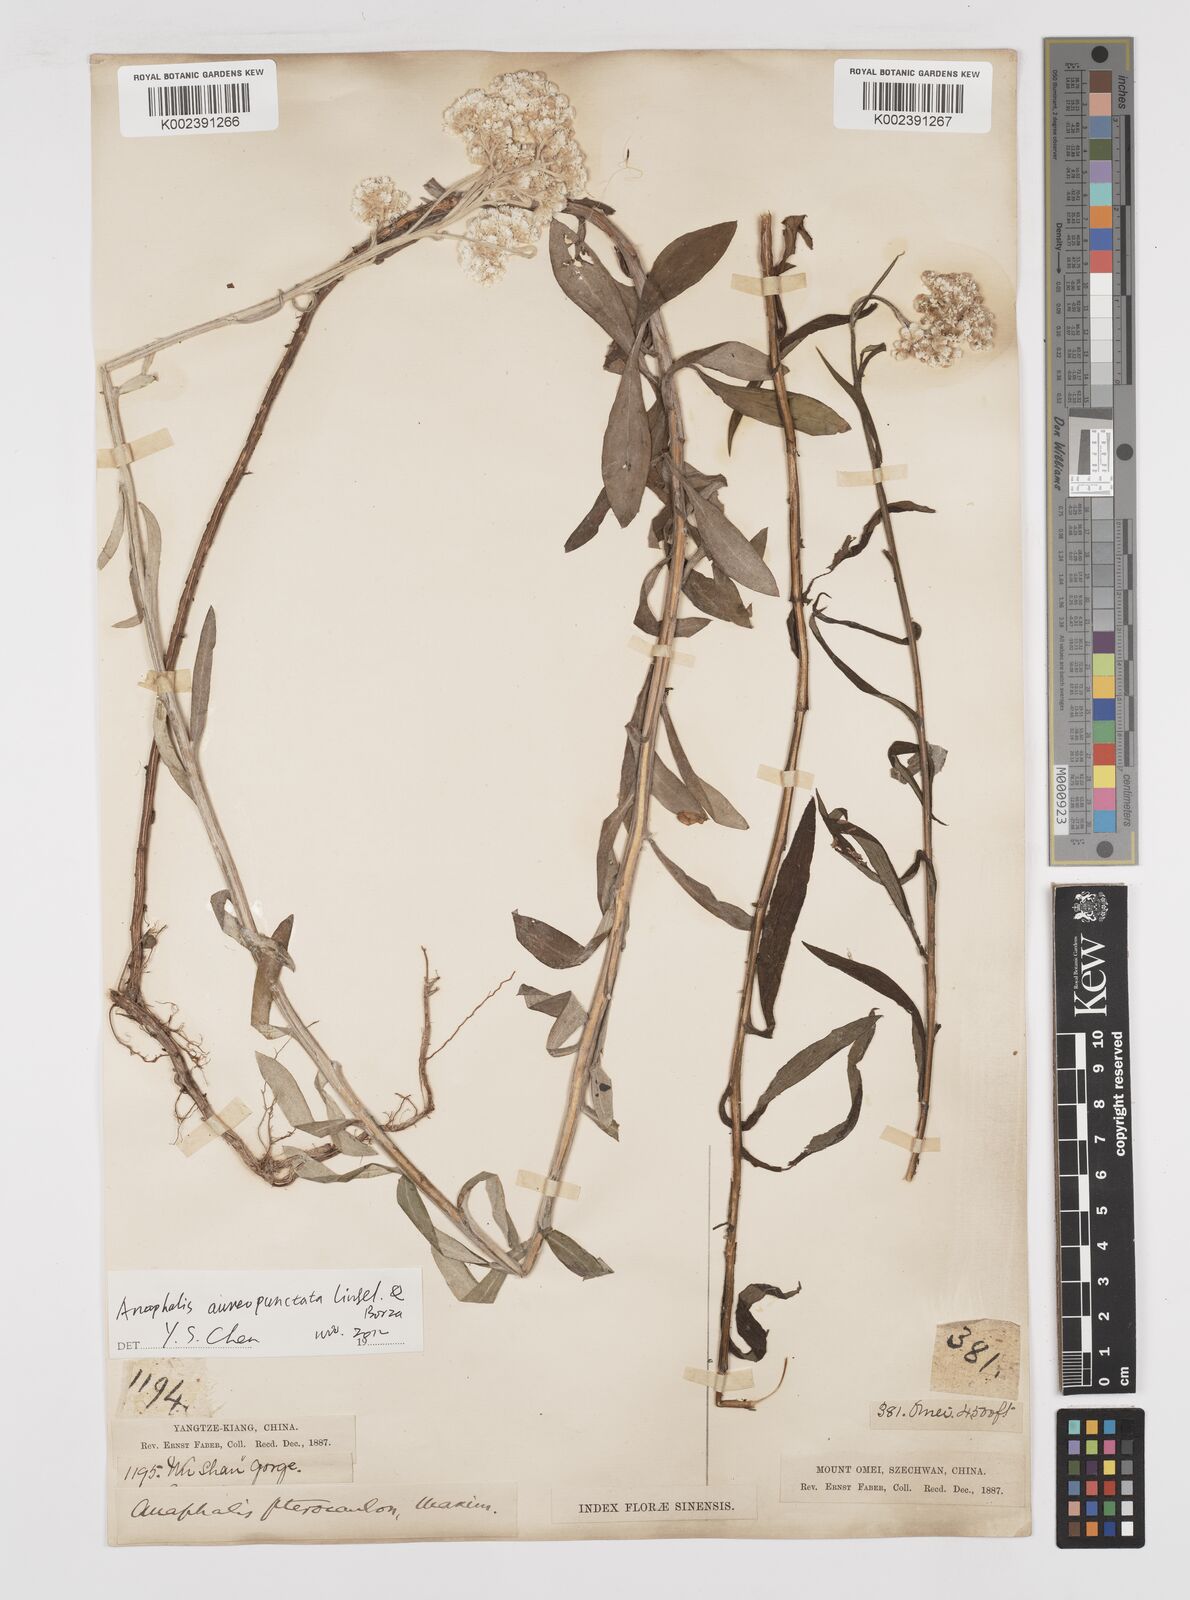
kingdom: Plantae
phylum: Tracheophyta
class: Magnoliopsida
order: Asterales
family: Asteraceae
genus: Anaphalis
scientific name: Anaphalis sinica
